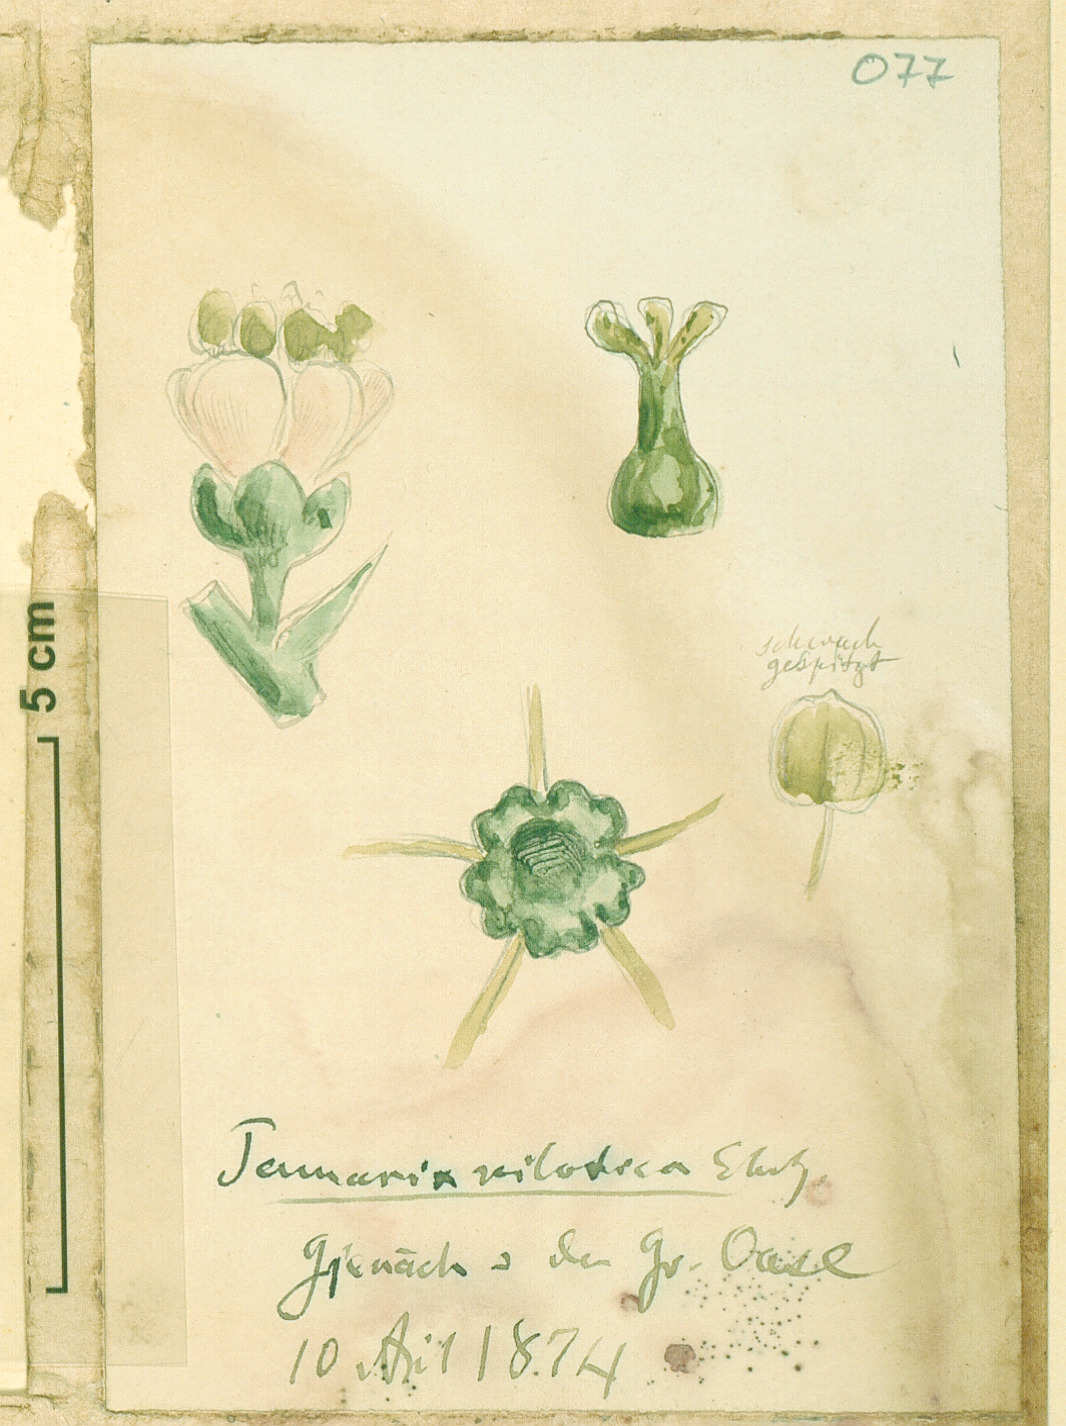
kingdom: Plantae
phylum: Tracheophyta
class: Magnoliopsida
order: Caryophyllales
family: Tamaricaceae
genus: Tamarix
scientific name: Tamarix nilotica
